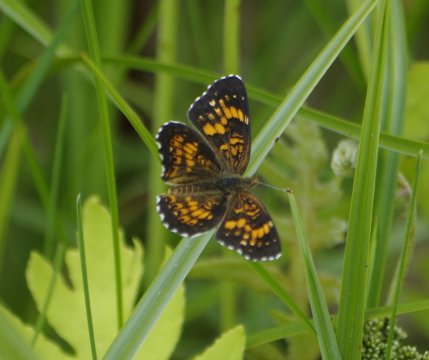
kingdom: Animalia
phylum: Arthropoda
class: Insecta
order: Lepidoptera
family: Nymphalidae
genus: Chlosyne
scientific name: Chlosyne harrisii
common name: Harris's Checkerspot
